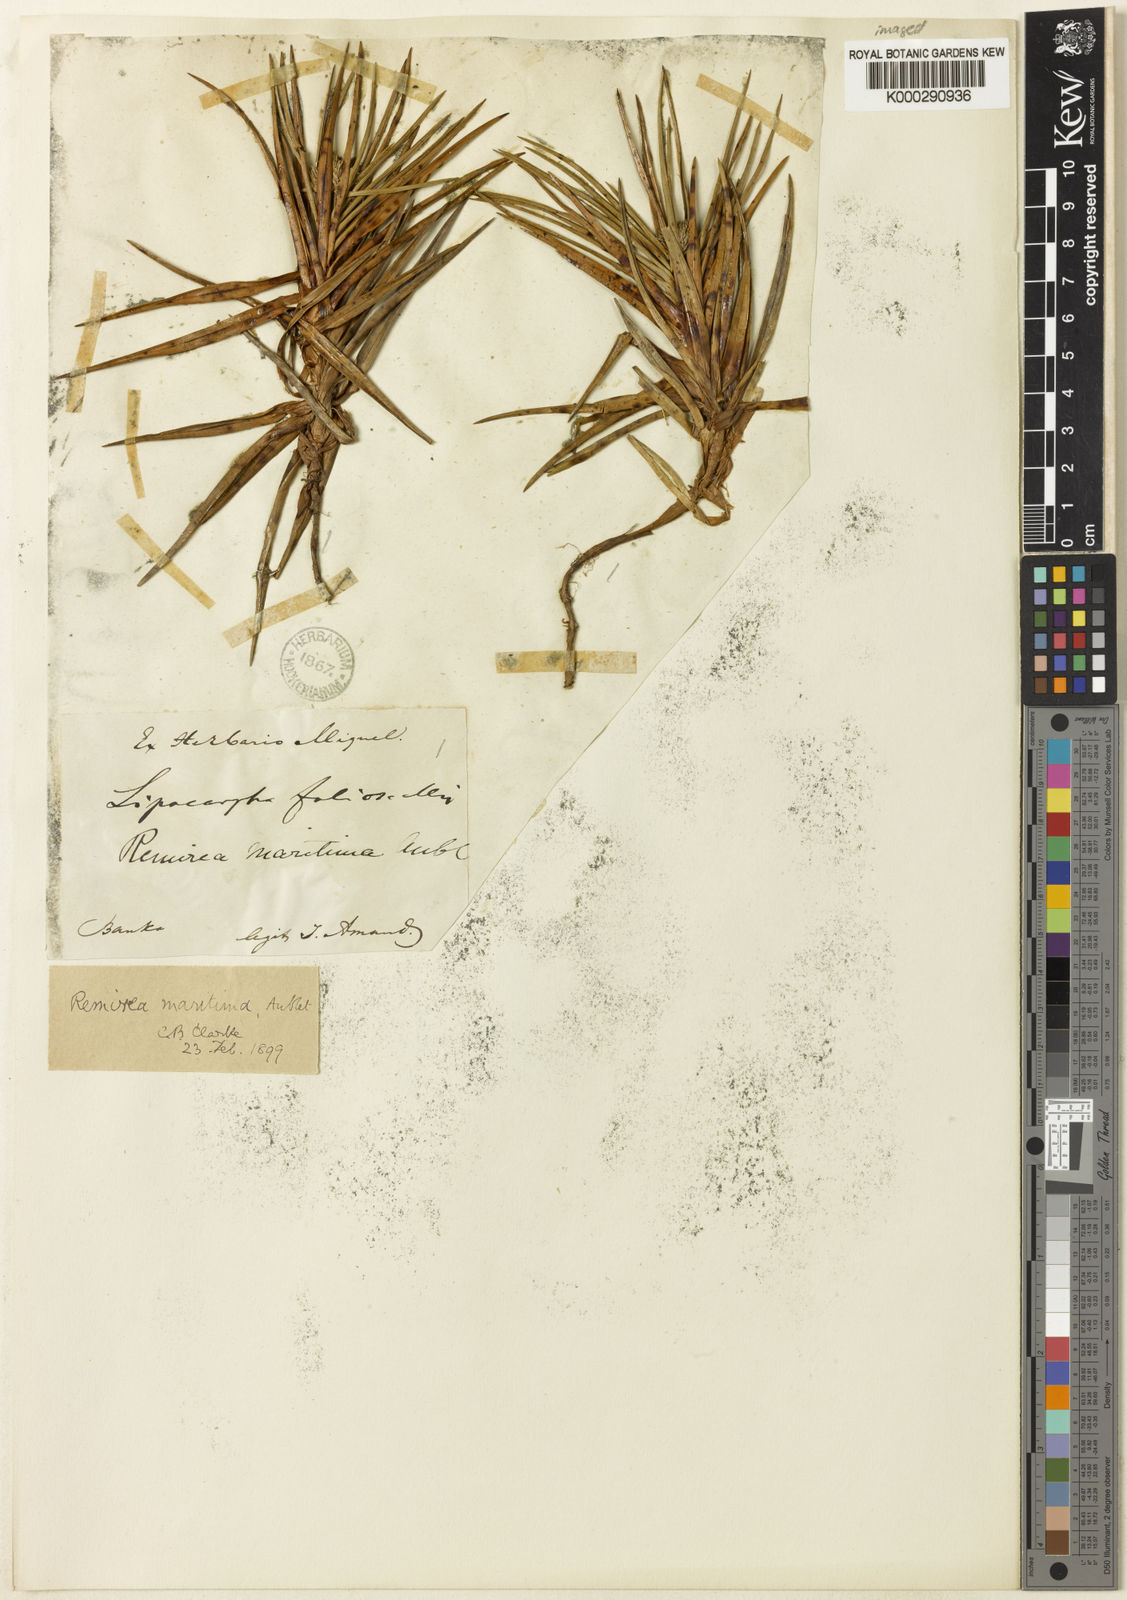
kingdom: Plantae
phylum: Tracheophyta
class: Liliopsida
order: Poales
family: Cyperaceae
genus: Cyperus
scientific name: Cyperus pedunculatus
